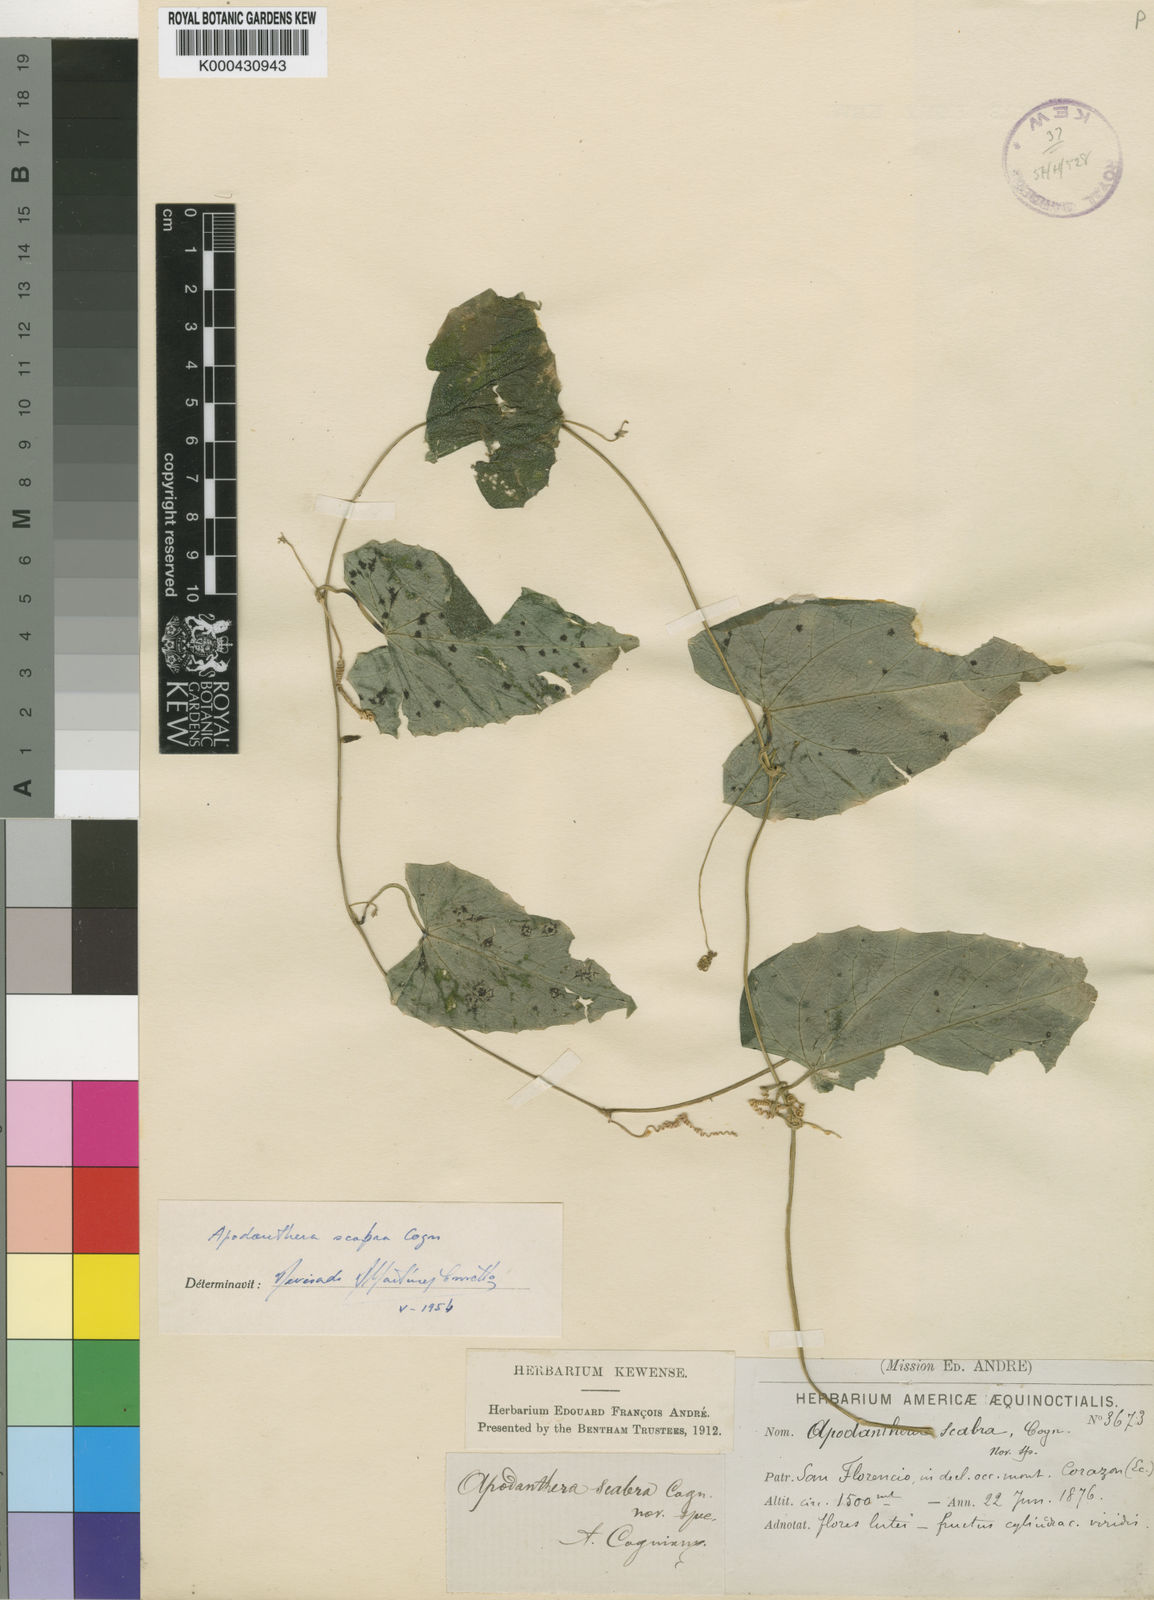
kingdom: Plantae
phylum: Tracheophyta
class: Magnoliopsida
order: Cucurbitales
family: Cucurbitaceae
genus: Melothria
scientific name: Melothria longituba
